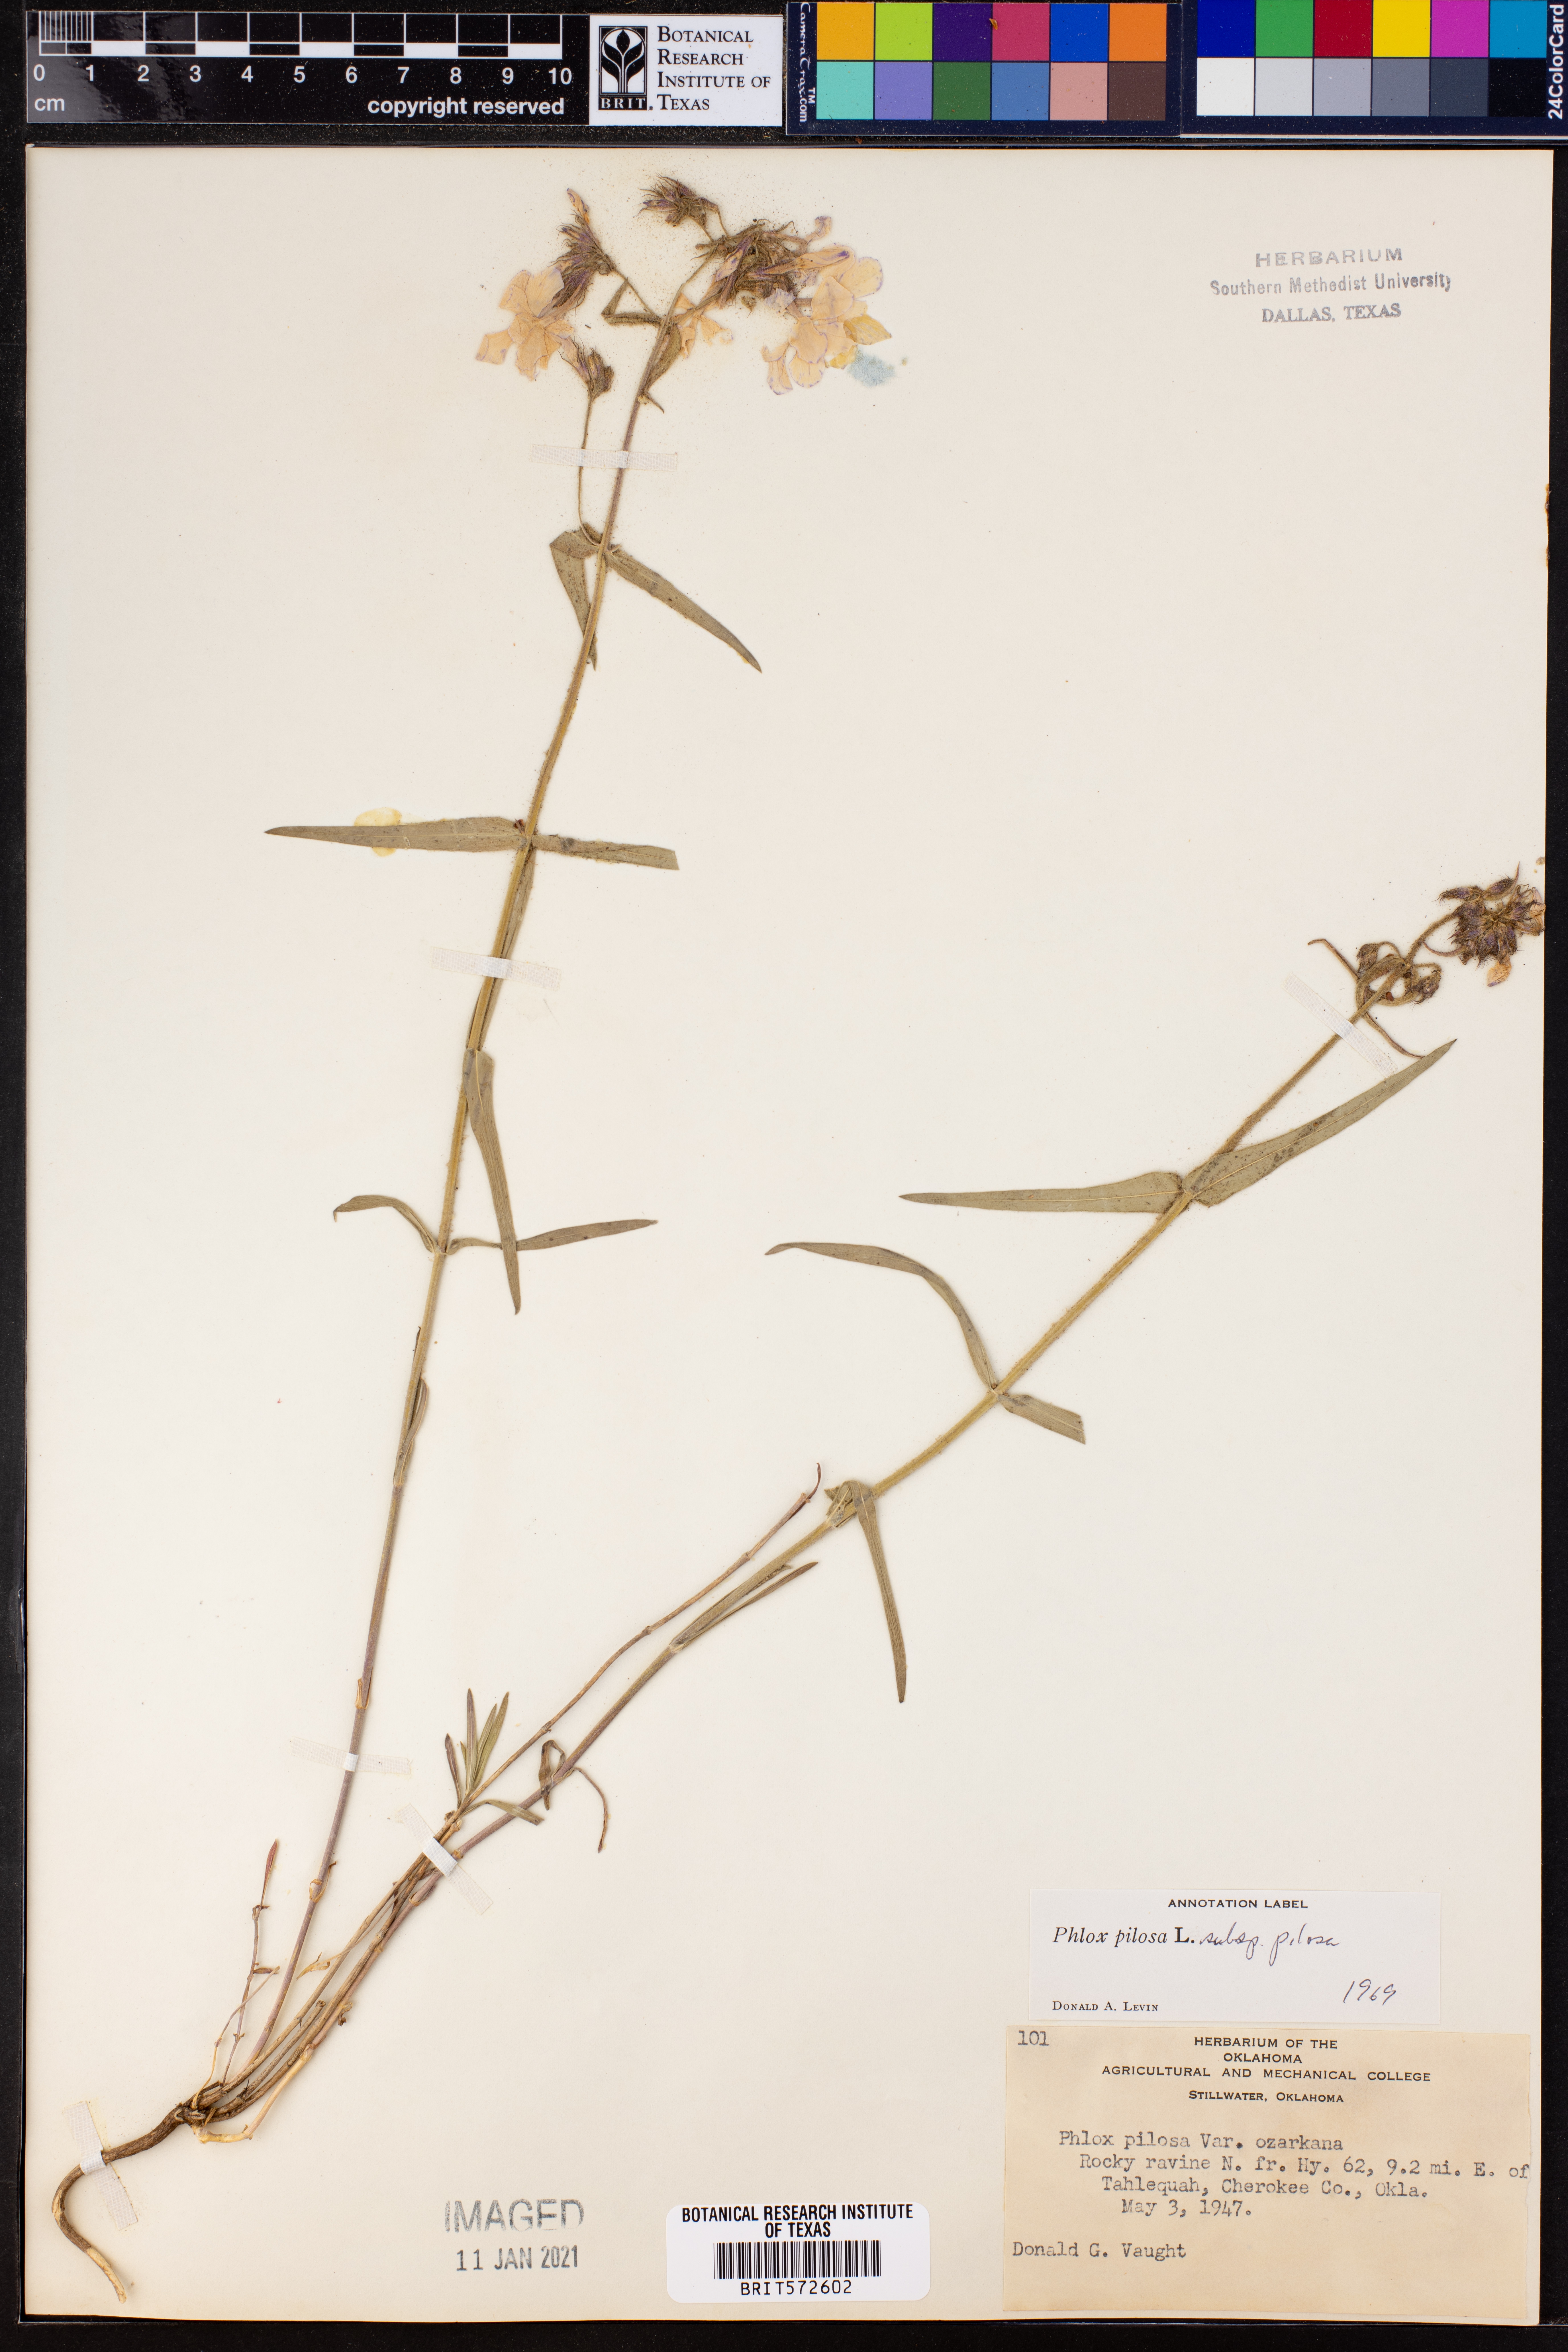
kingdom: Plantae
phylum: Tracheophyta
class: Magnoliopsida
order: Ericales
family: Polemoniaceae
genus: Phlox
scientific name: Phlox pilosa
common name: Prairie phlox
